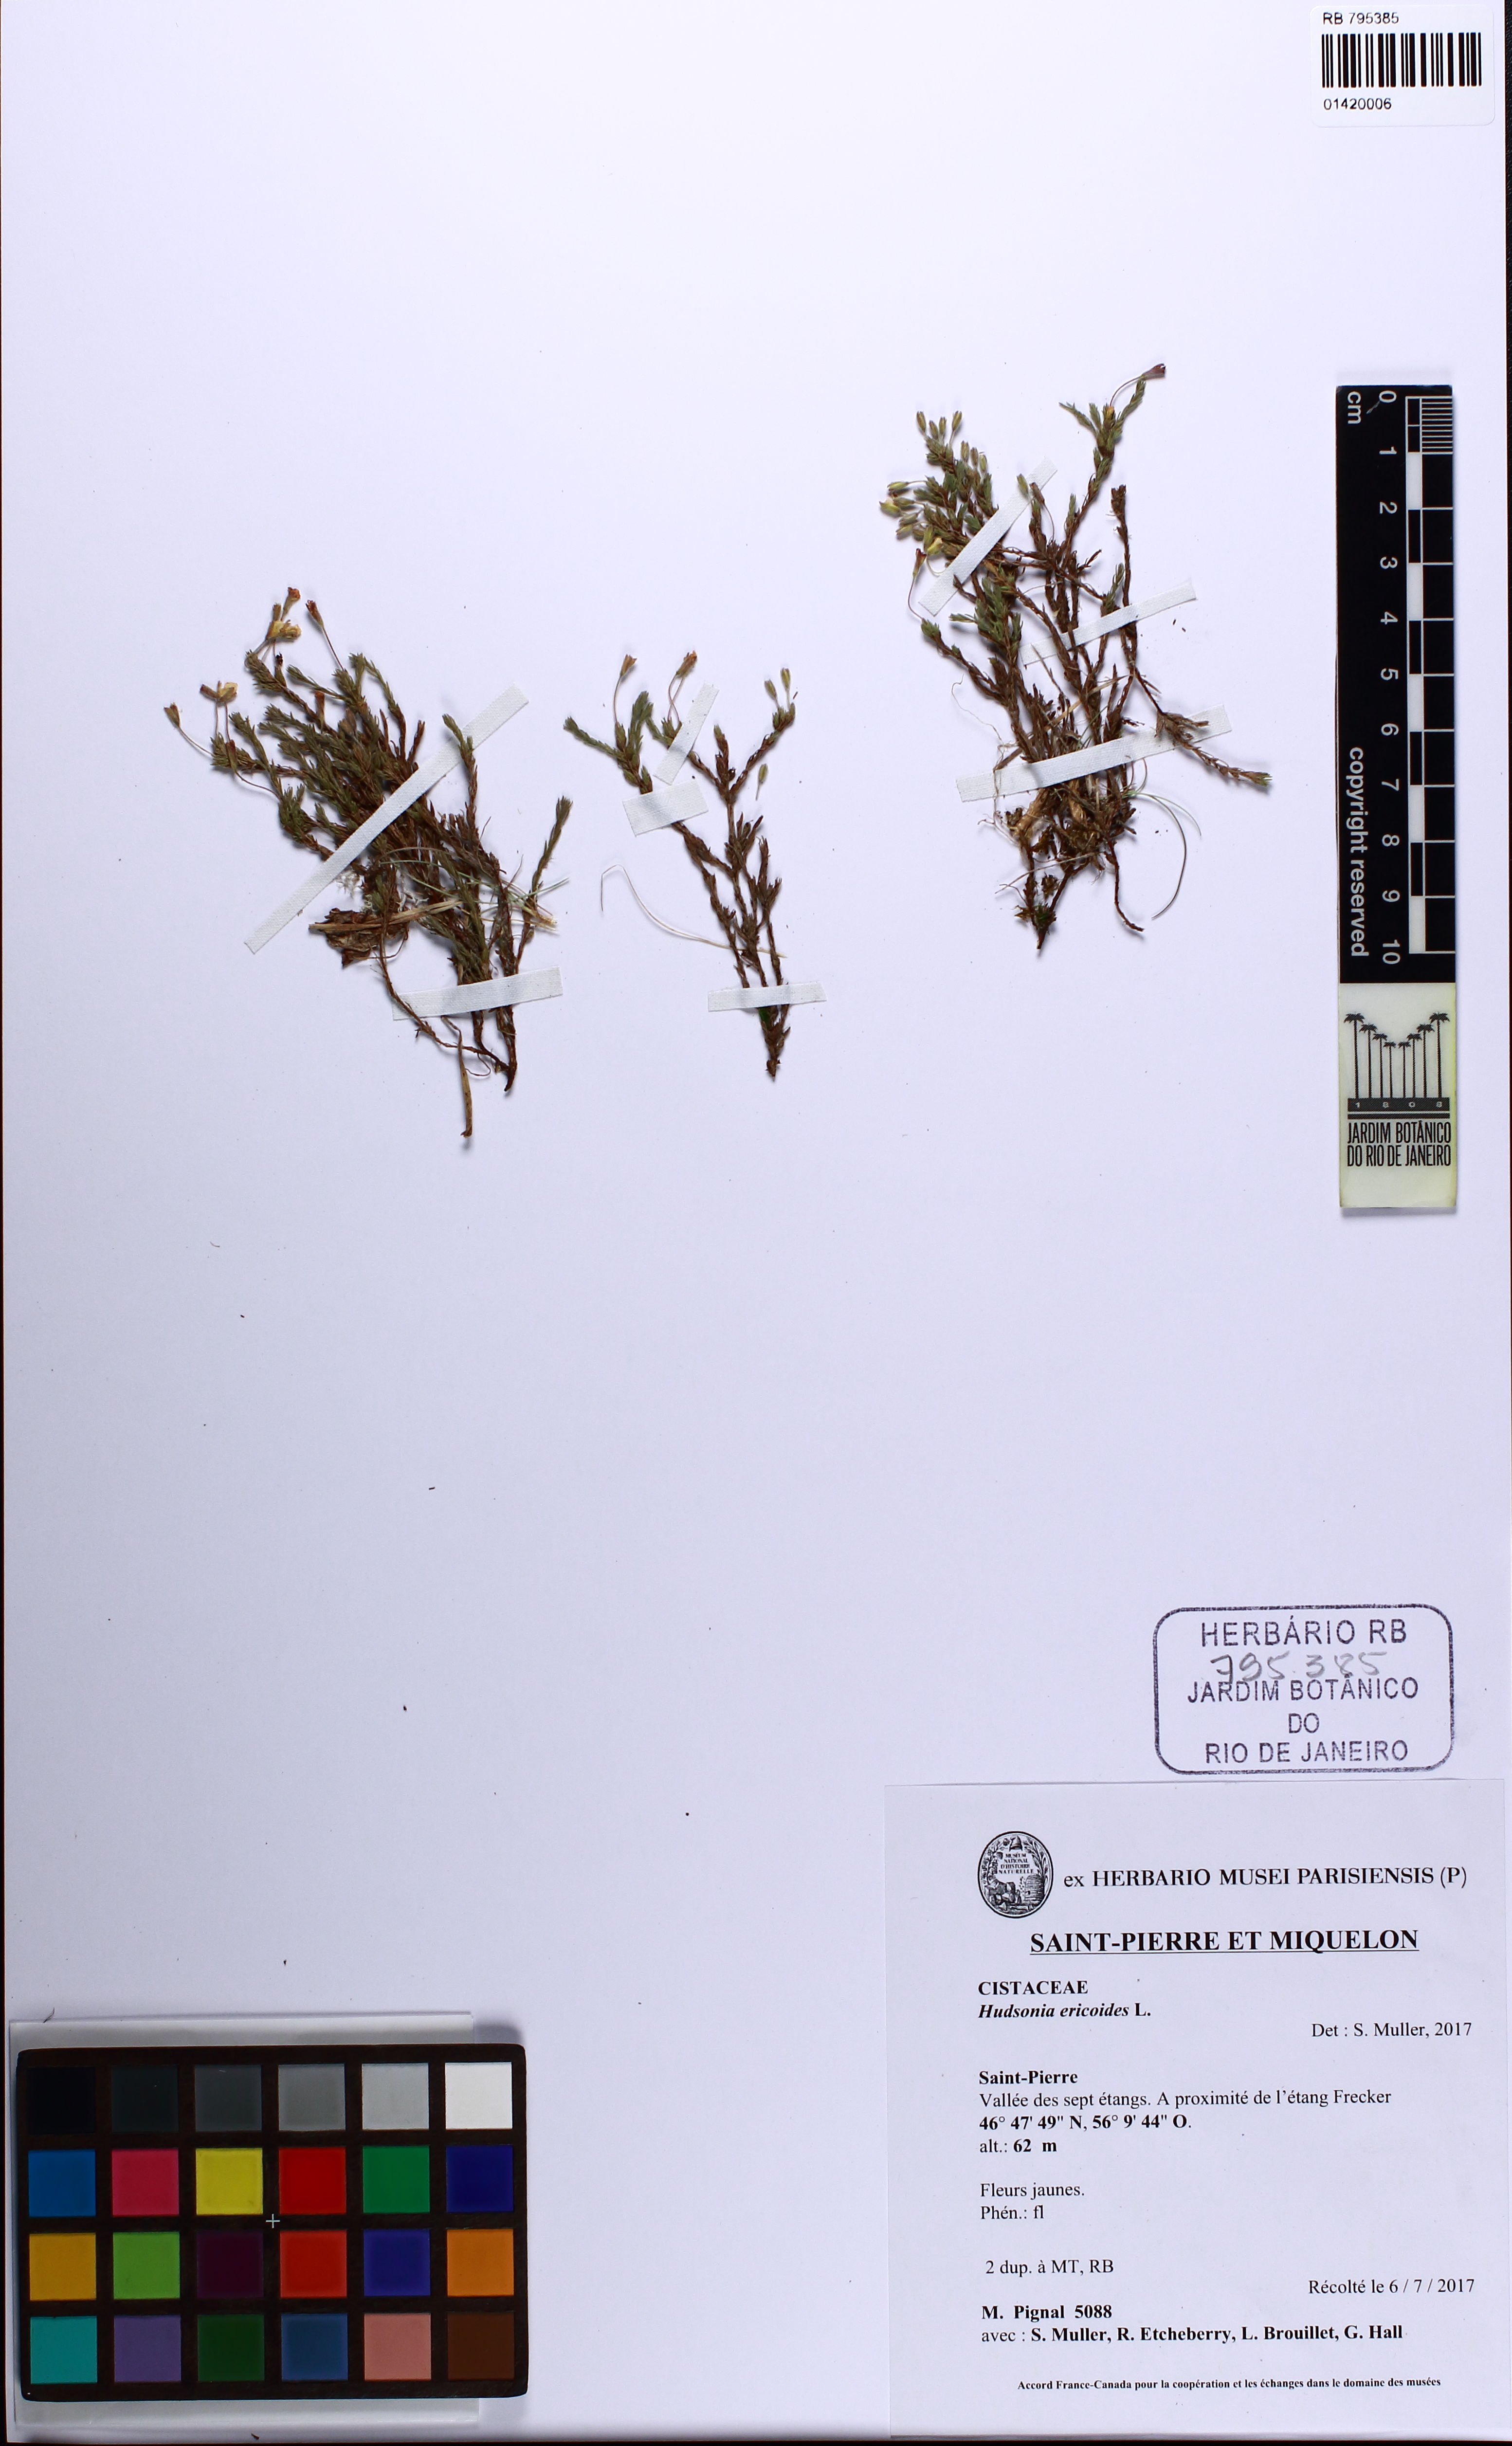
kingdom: Plantae
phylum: Tracheophyta
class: Magnoliopsida
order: Malvales
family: Cistaceae
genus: Hudsonia
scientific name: Hudsonia ericoides
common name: Golden-heather
